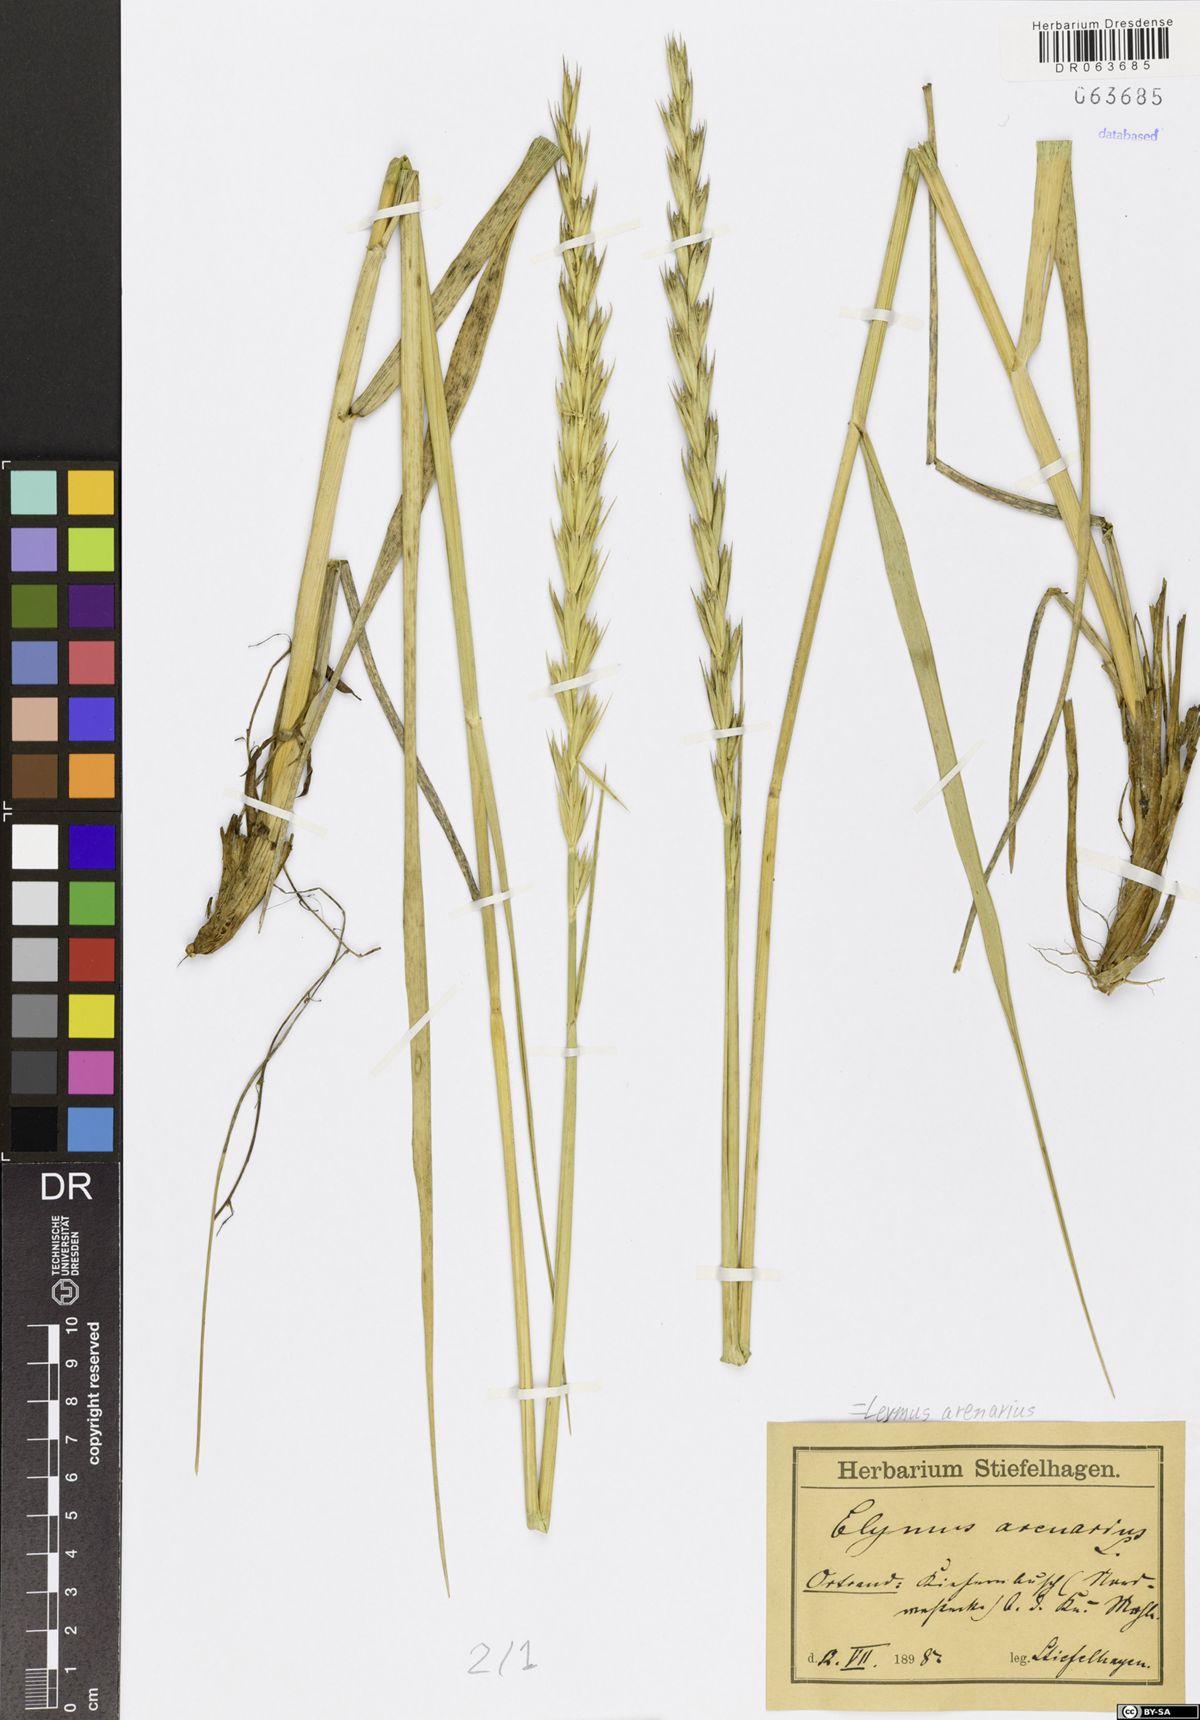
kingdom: Plantae
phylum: Tracheophyta
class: Liliopsida
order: Poales
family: Poaceae
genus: Leymus
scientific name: Leymus arenarius
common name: Lyme-grass
